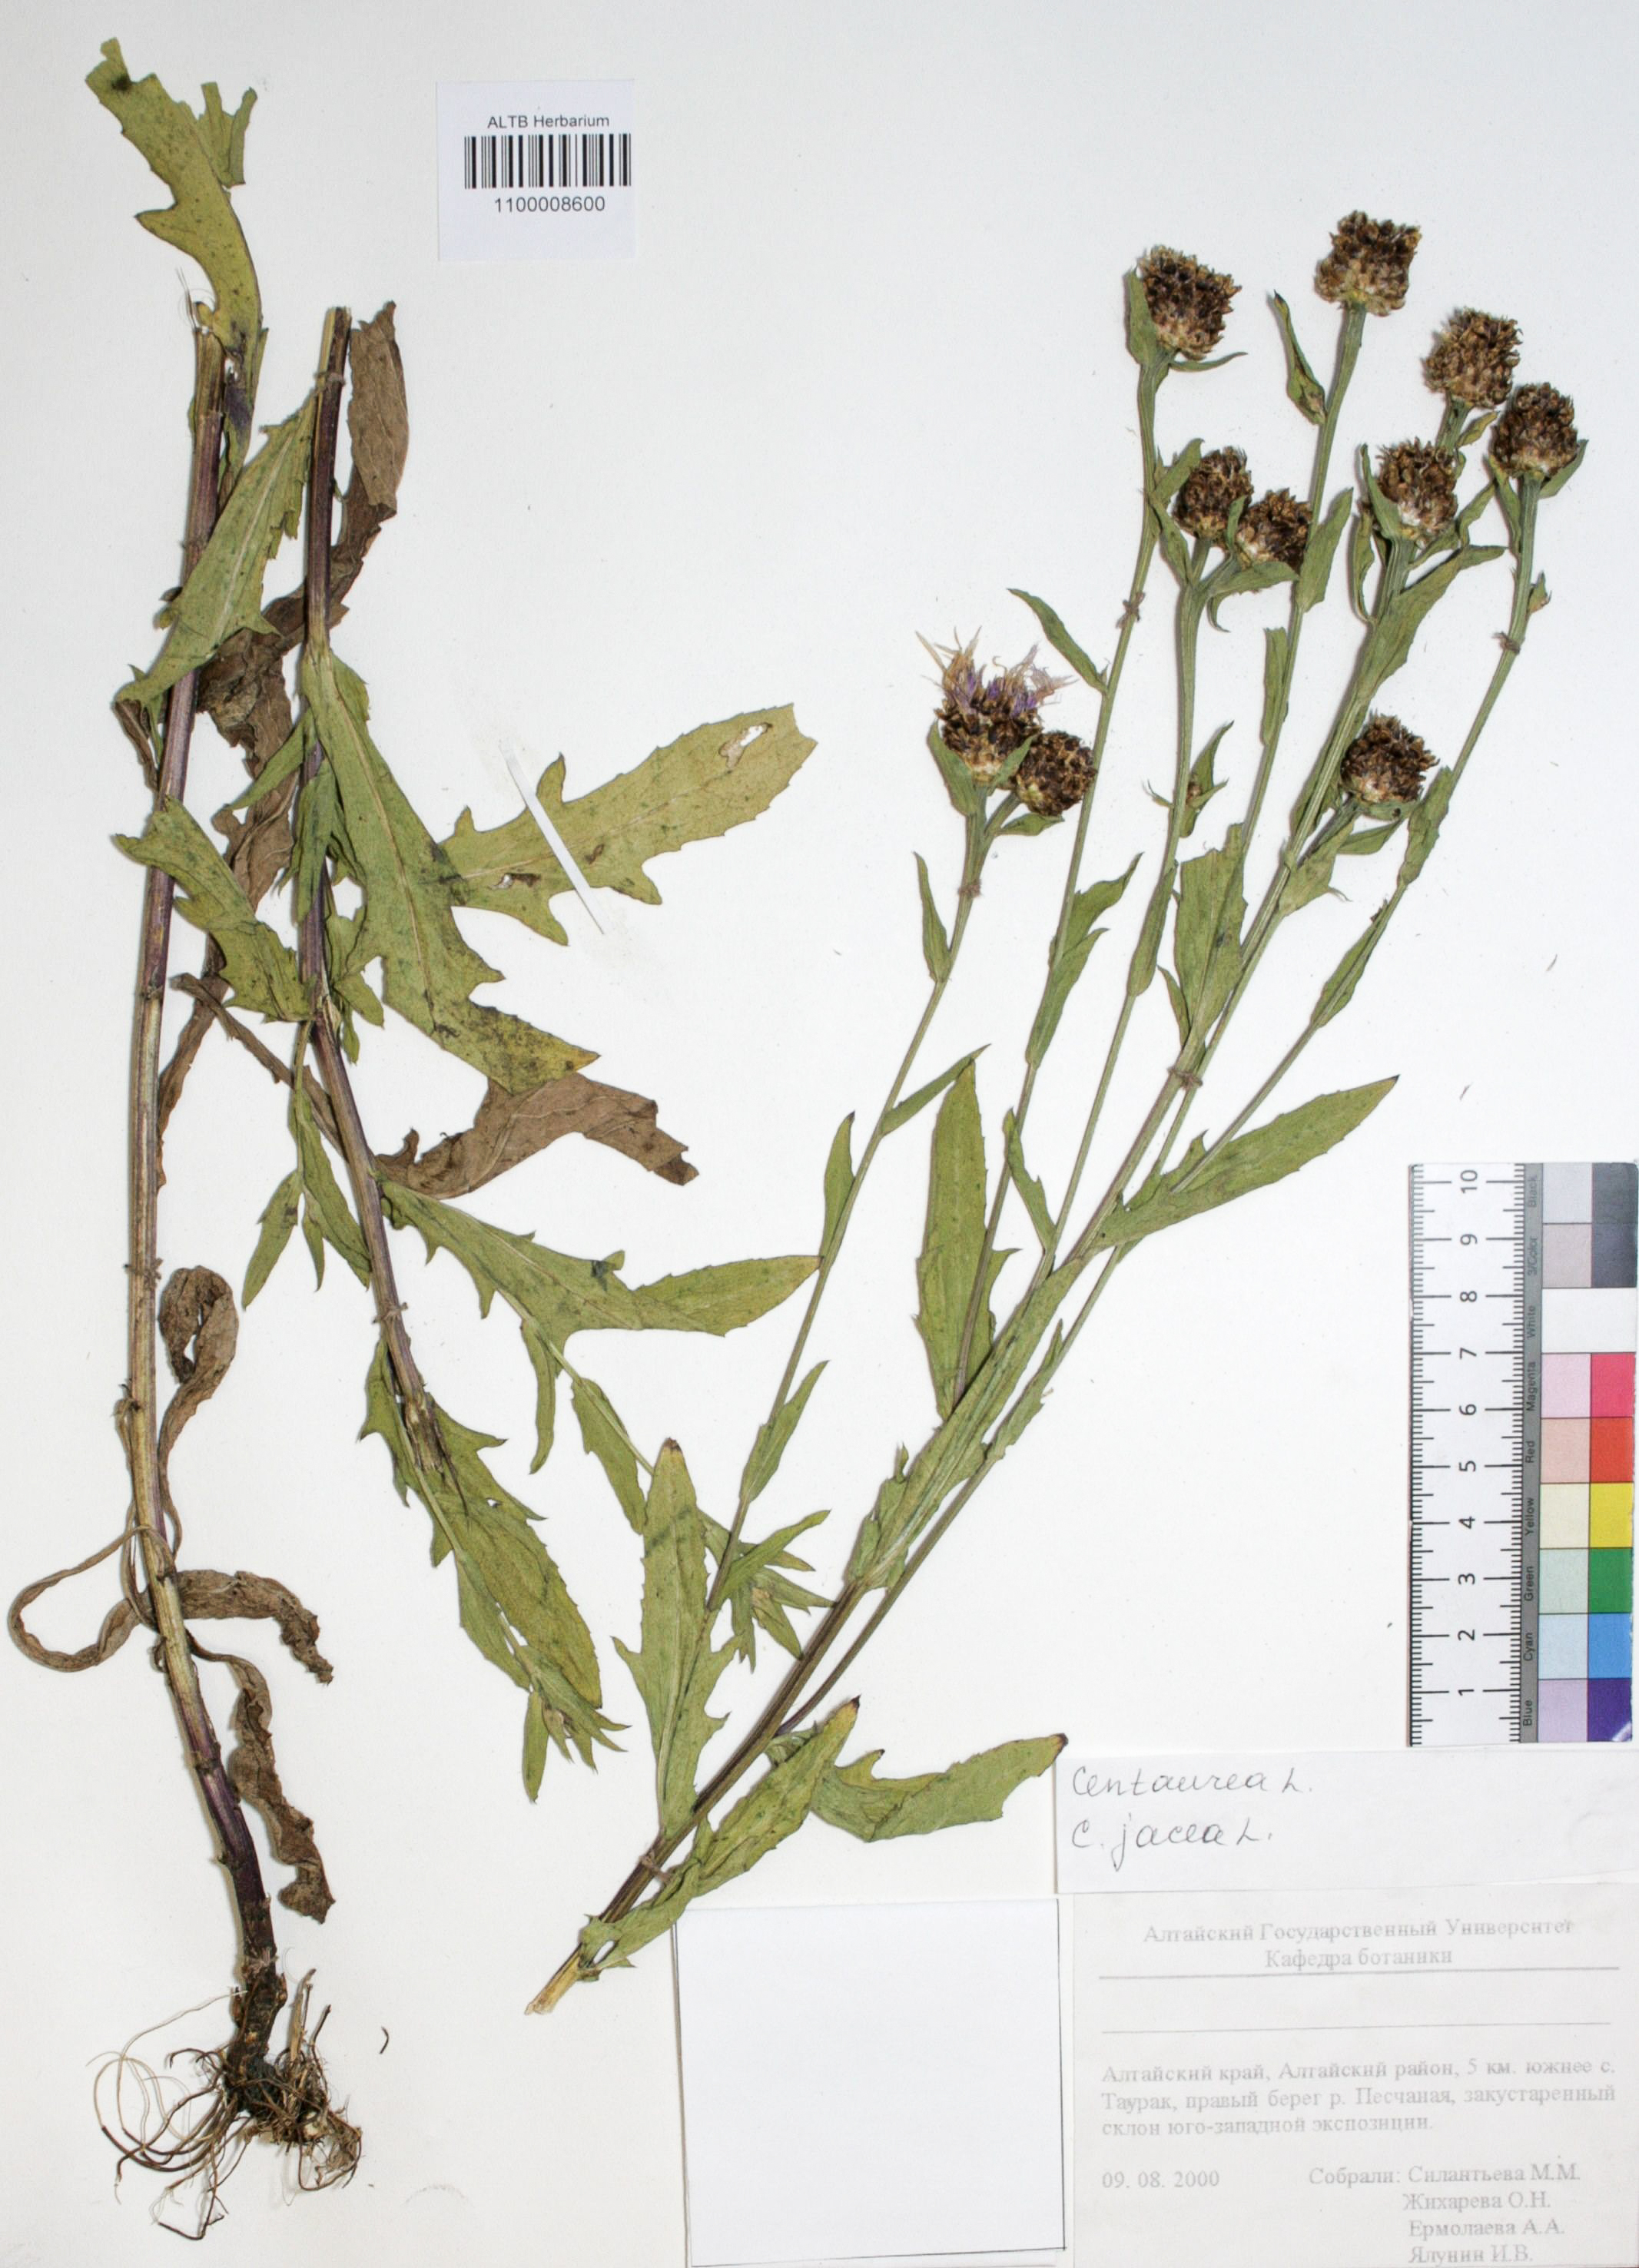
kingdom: Plantae
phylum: Tracheophyta
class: Magnoliopsida
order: Asterales
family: Asteraceae
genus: Centaurea
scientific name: Centaurea jacea
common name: Brown knapweed
